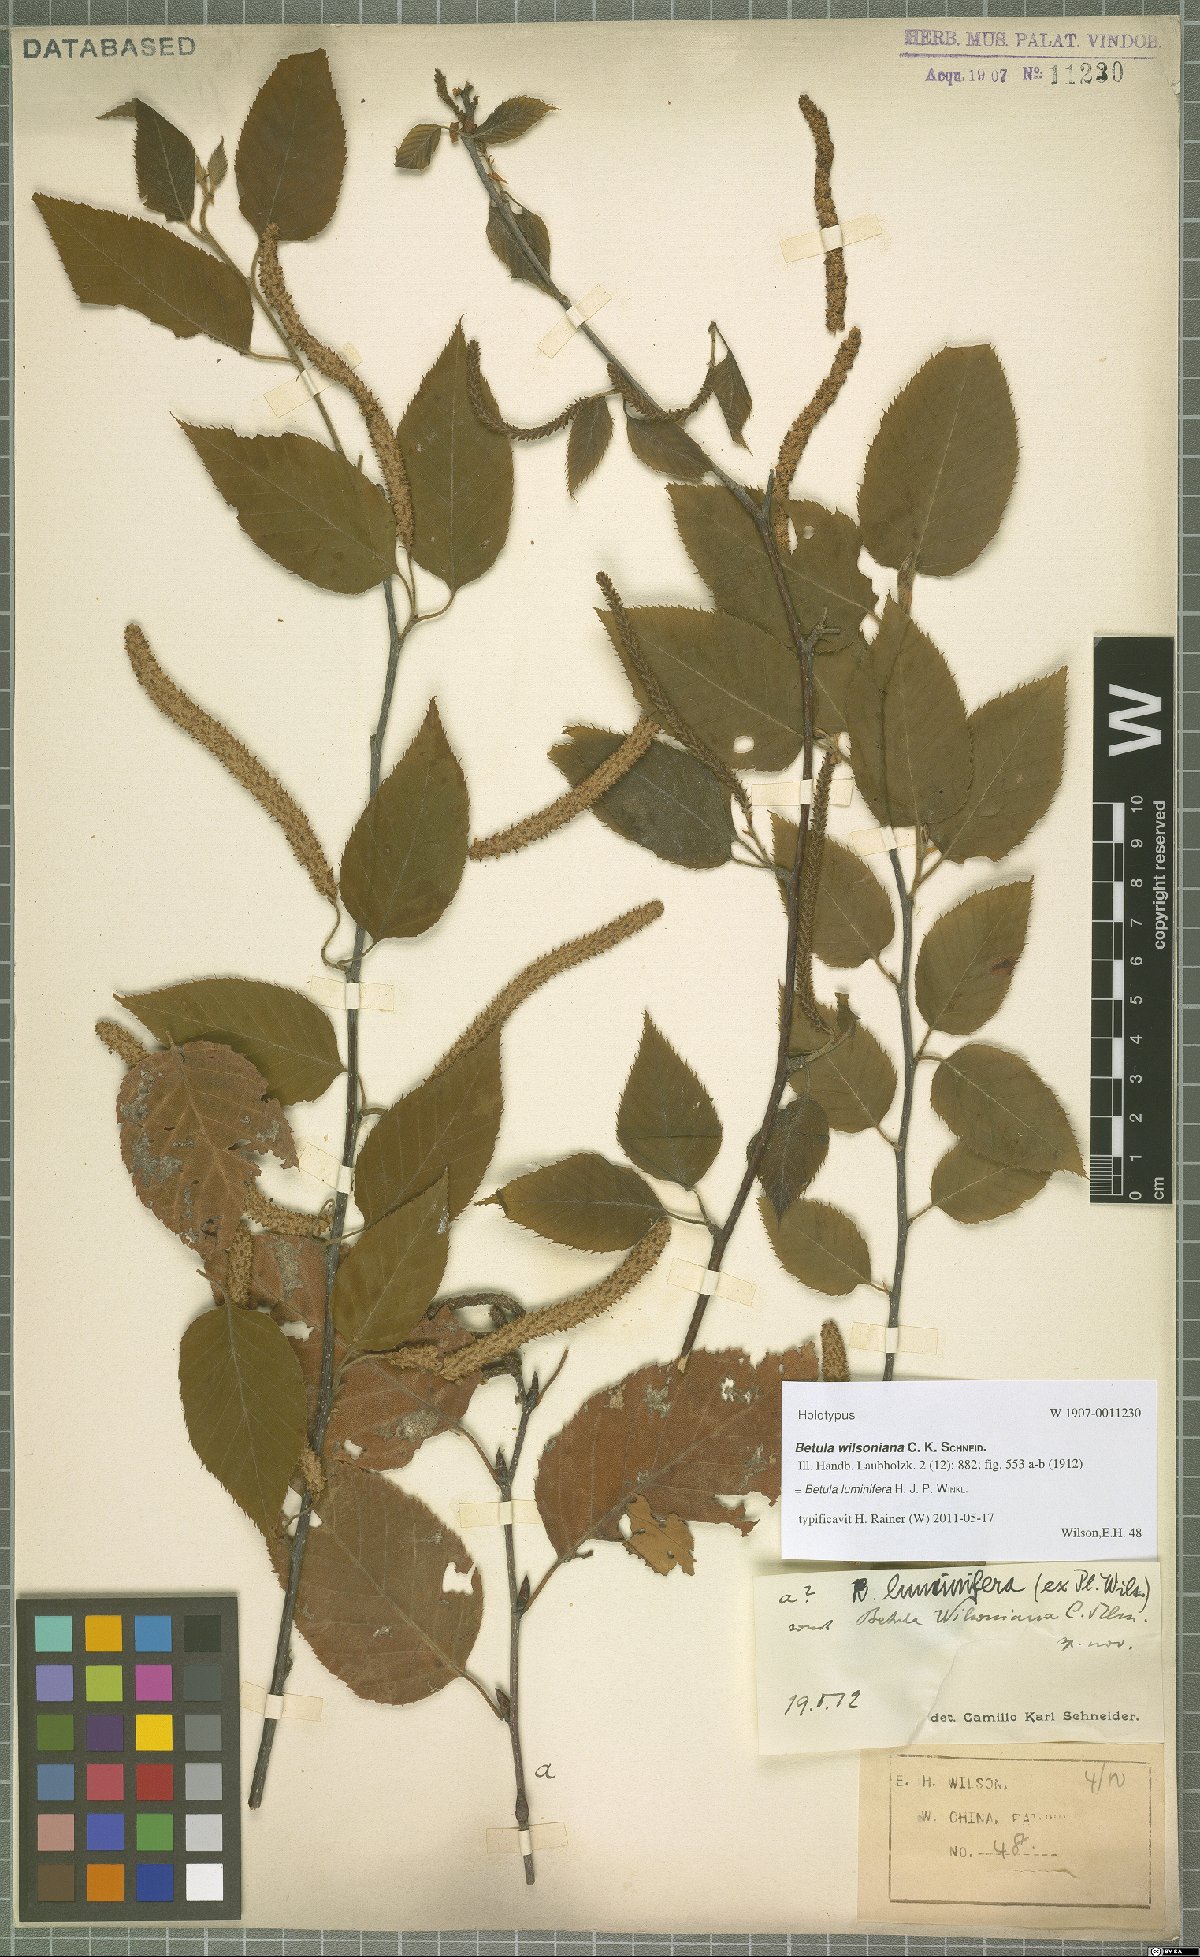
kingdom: Plantae
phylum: Tracheophyta
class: Magnoliopsida
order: Fagales
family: Betulaceae
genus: Betula
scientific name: Betula luminifera
